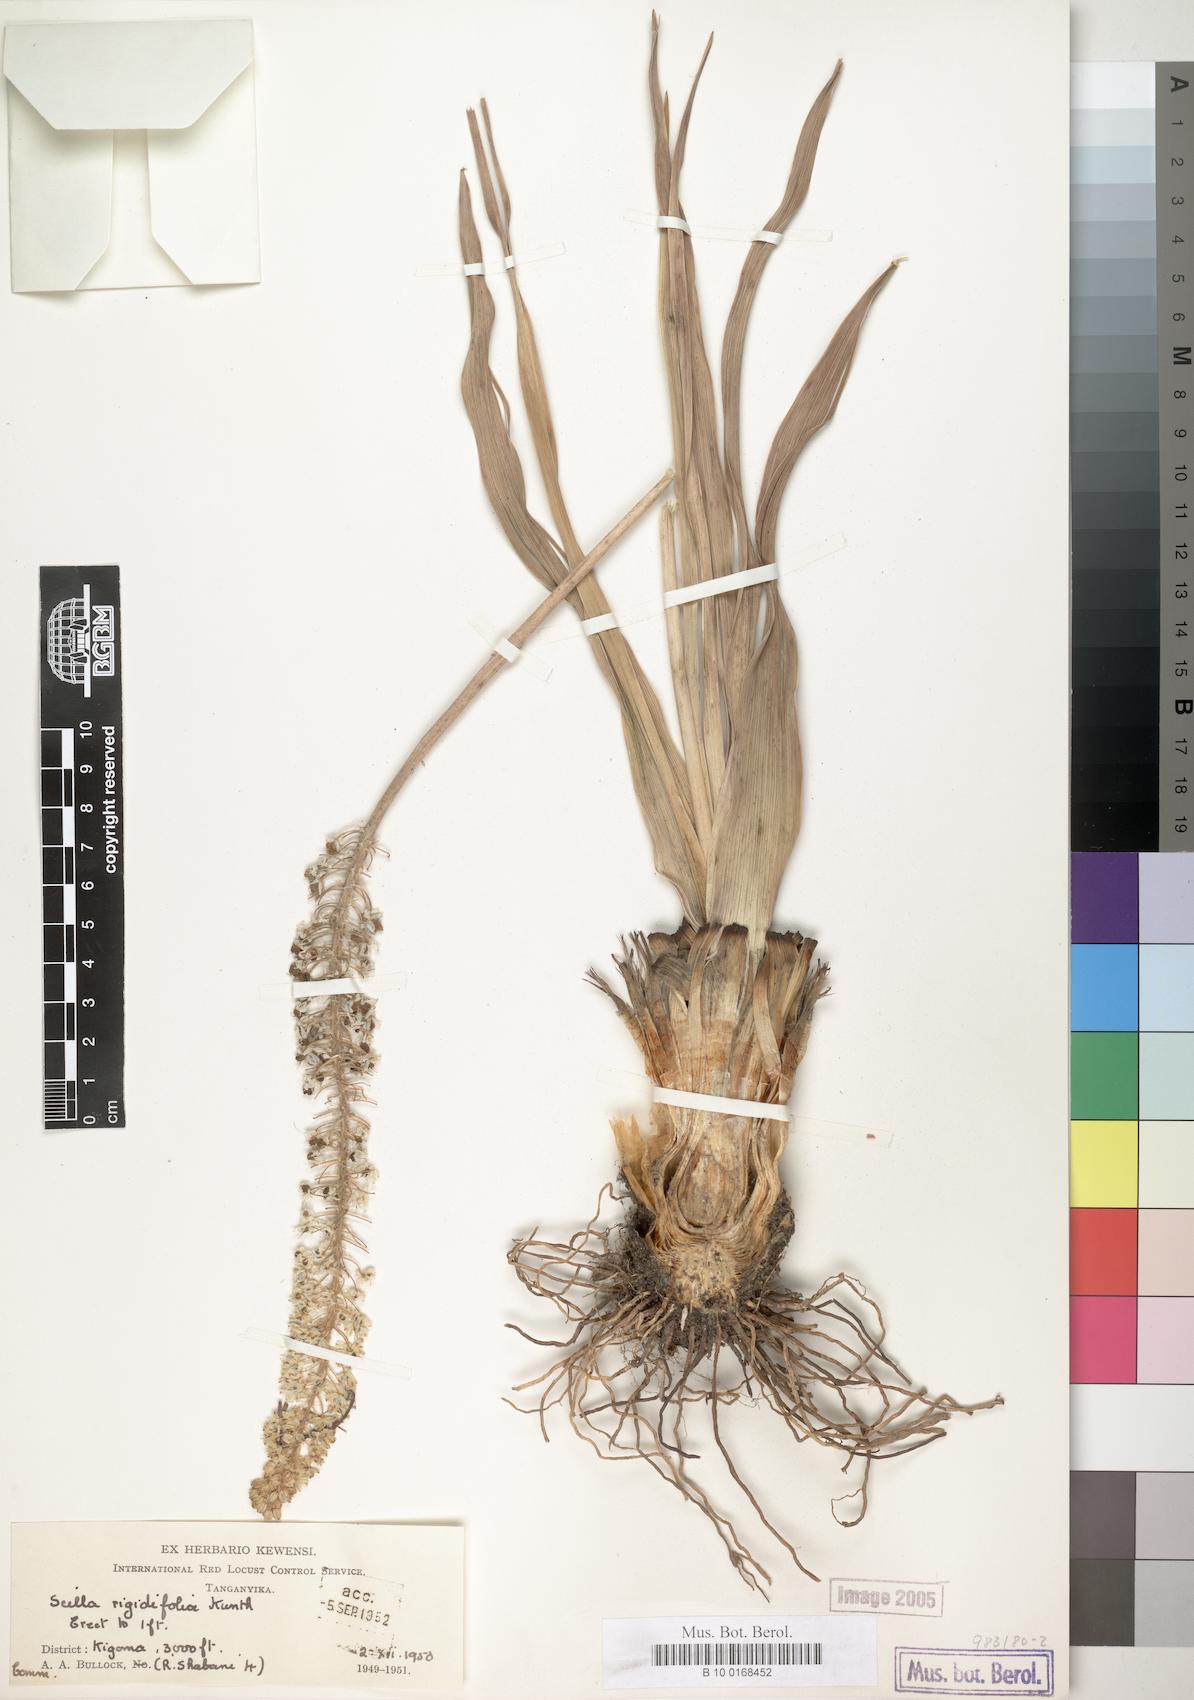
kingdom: Plantae
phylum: Tracheophyta
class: Liliopsida
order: Asparagales
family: Asparagaceae
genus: Schizocarphus
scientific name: Schizocarphus nervosus
